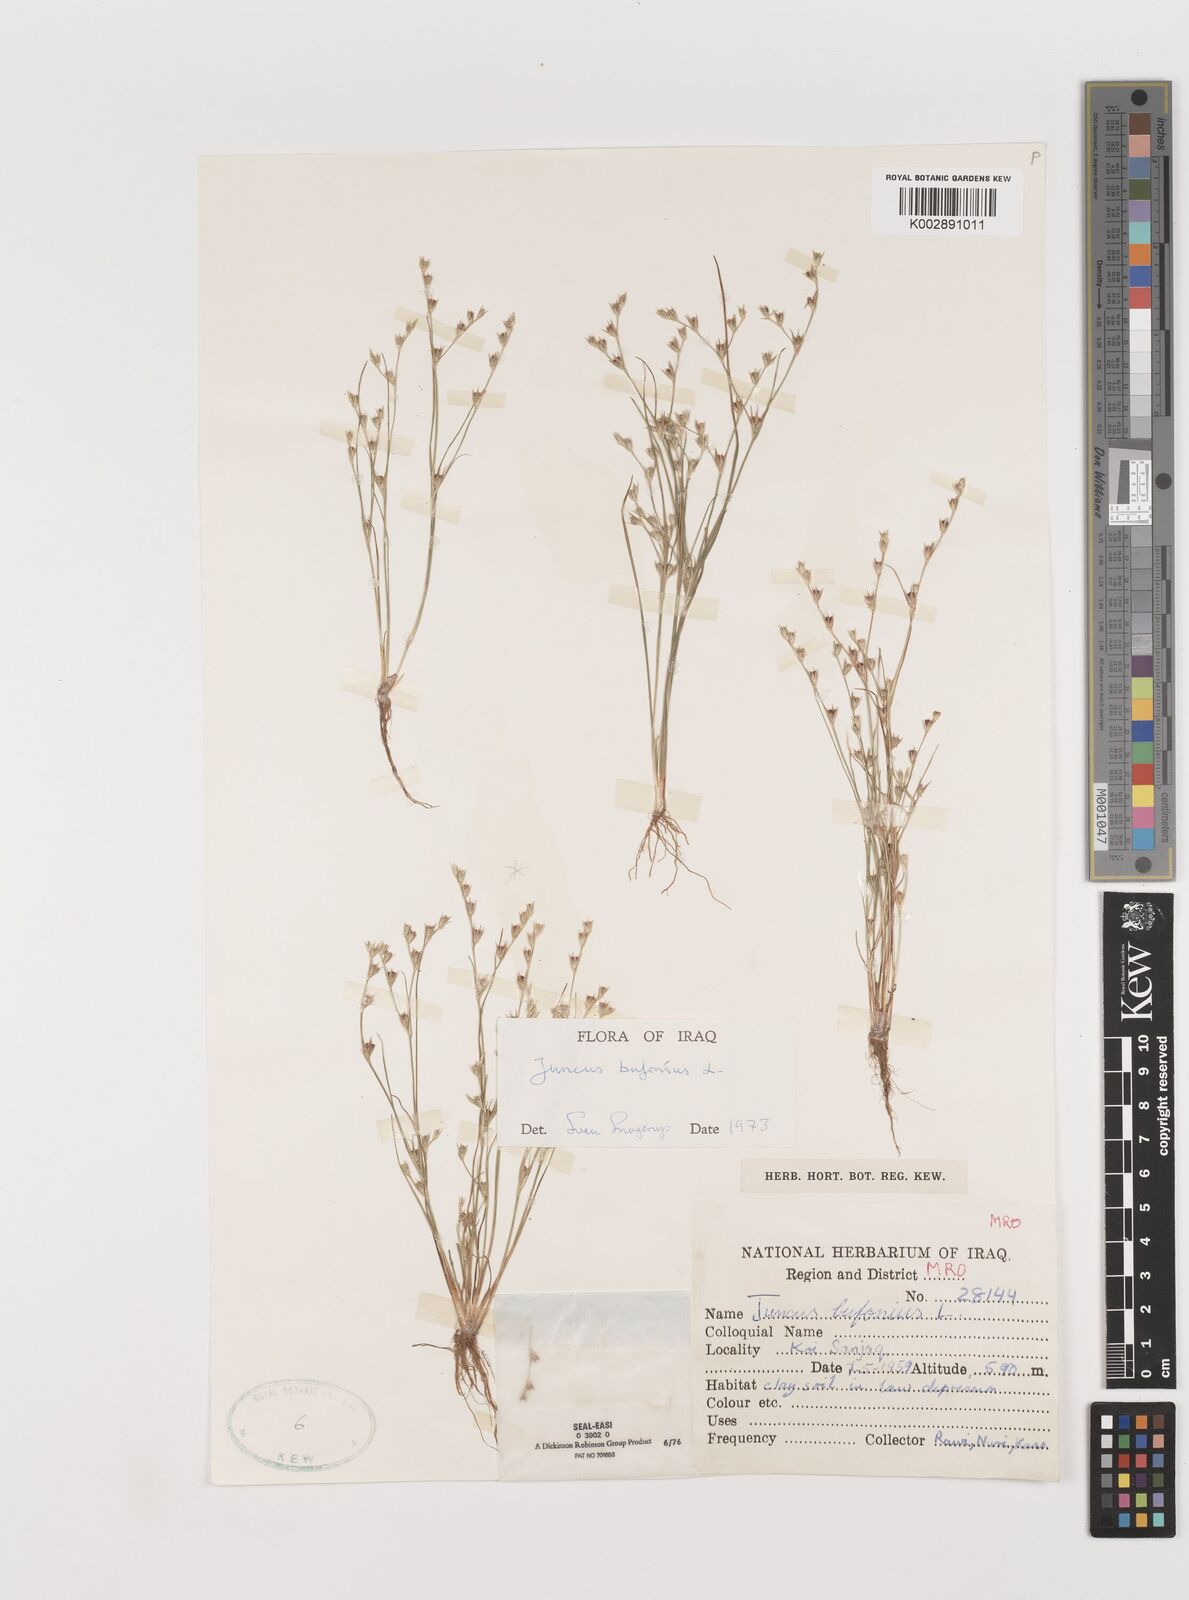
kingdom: Plantae
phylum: Tracheophyta
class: Liliopsida
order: Poales
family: Juncaceae
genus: Juncus
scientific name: Juncus bufonius
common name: Toad rush
